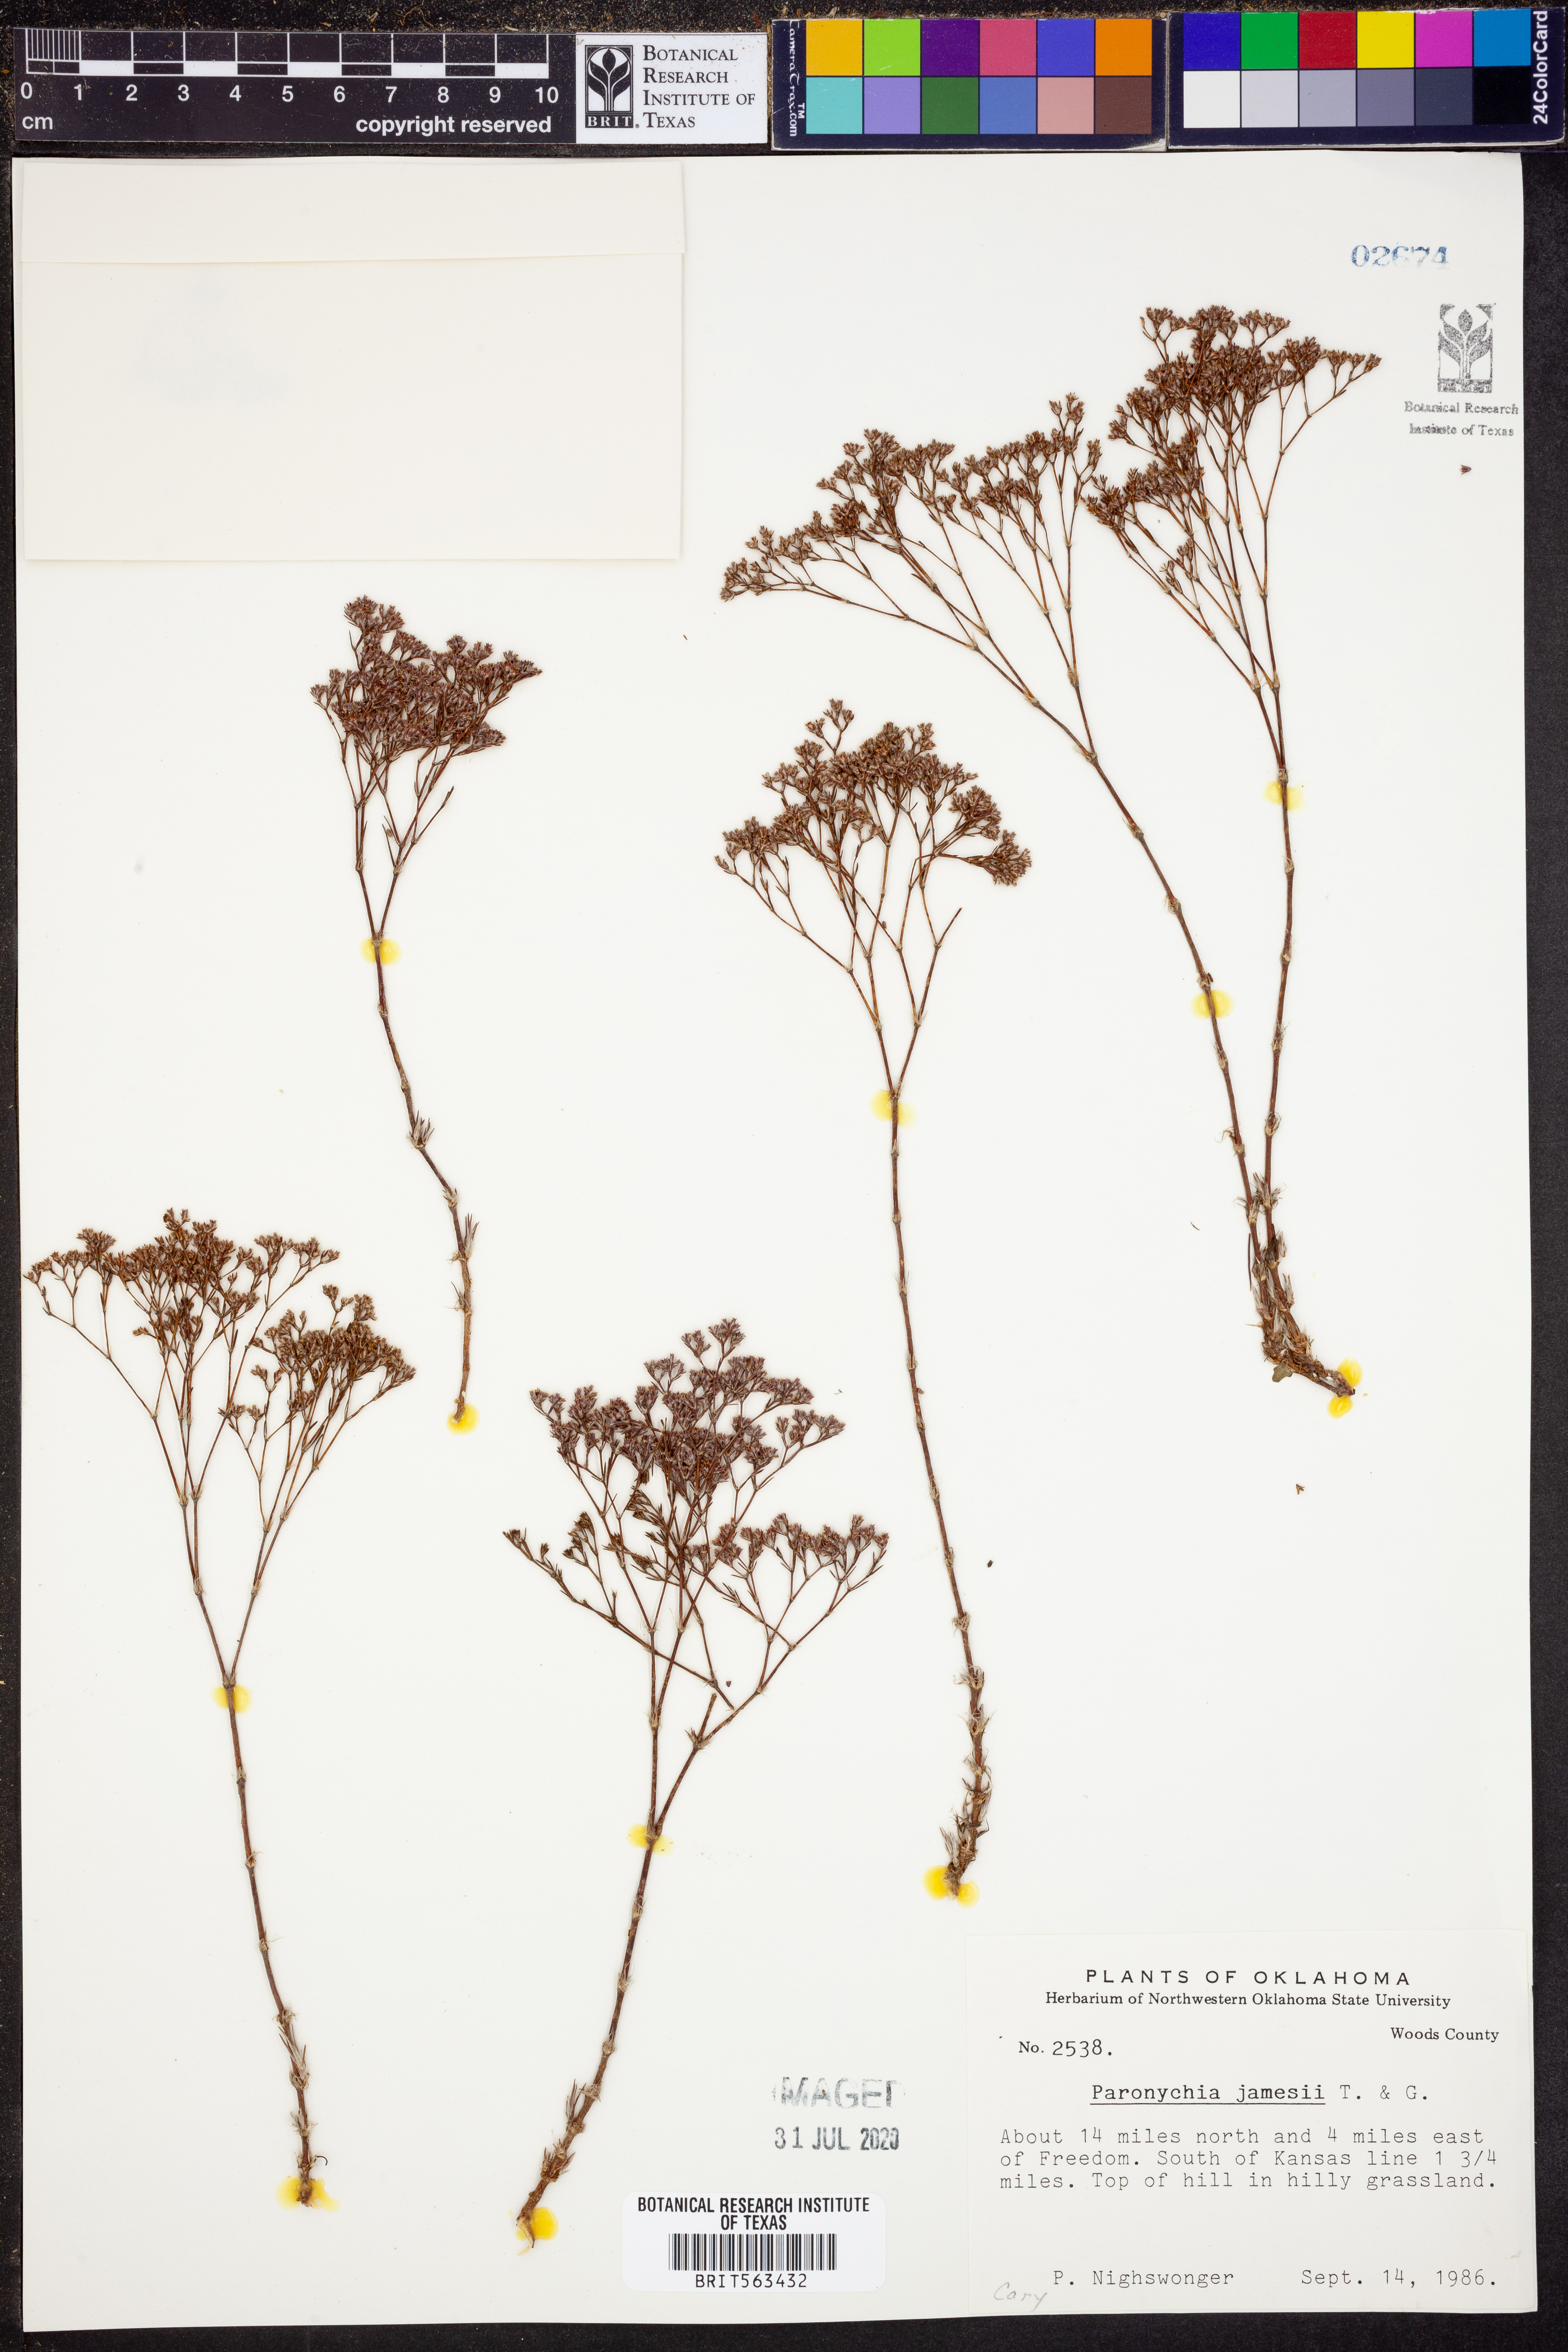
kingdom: Plantae
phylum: Tracheophyta
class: Magnoliopsida
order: Caryophyllales
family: Caryophyllaceae
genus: Paronychia
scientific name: Paronychia jamesii
